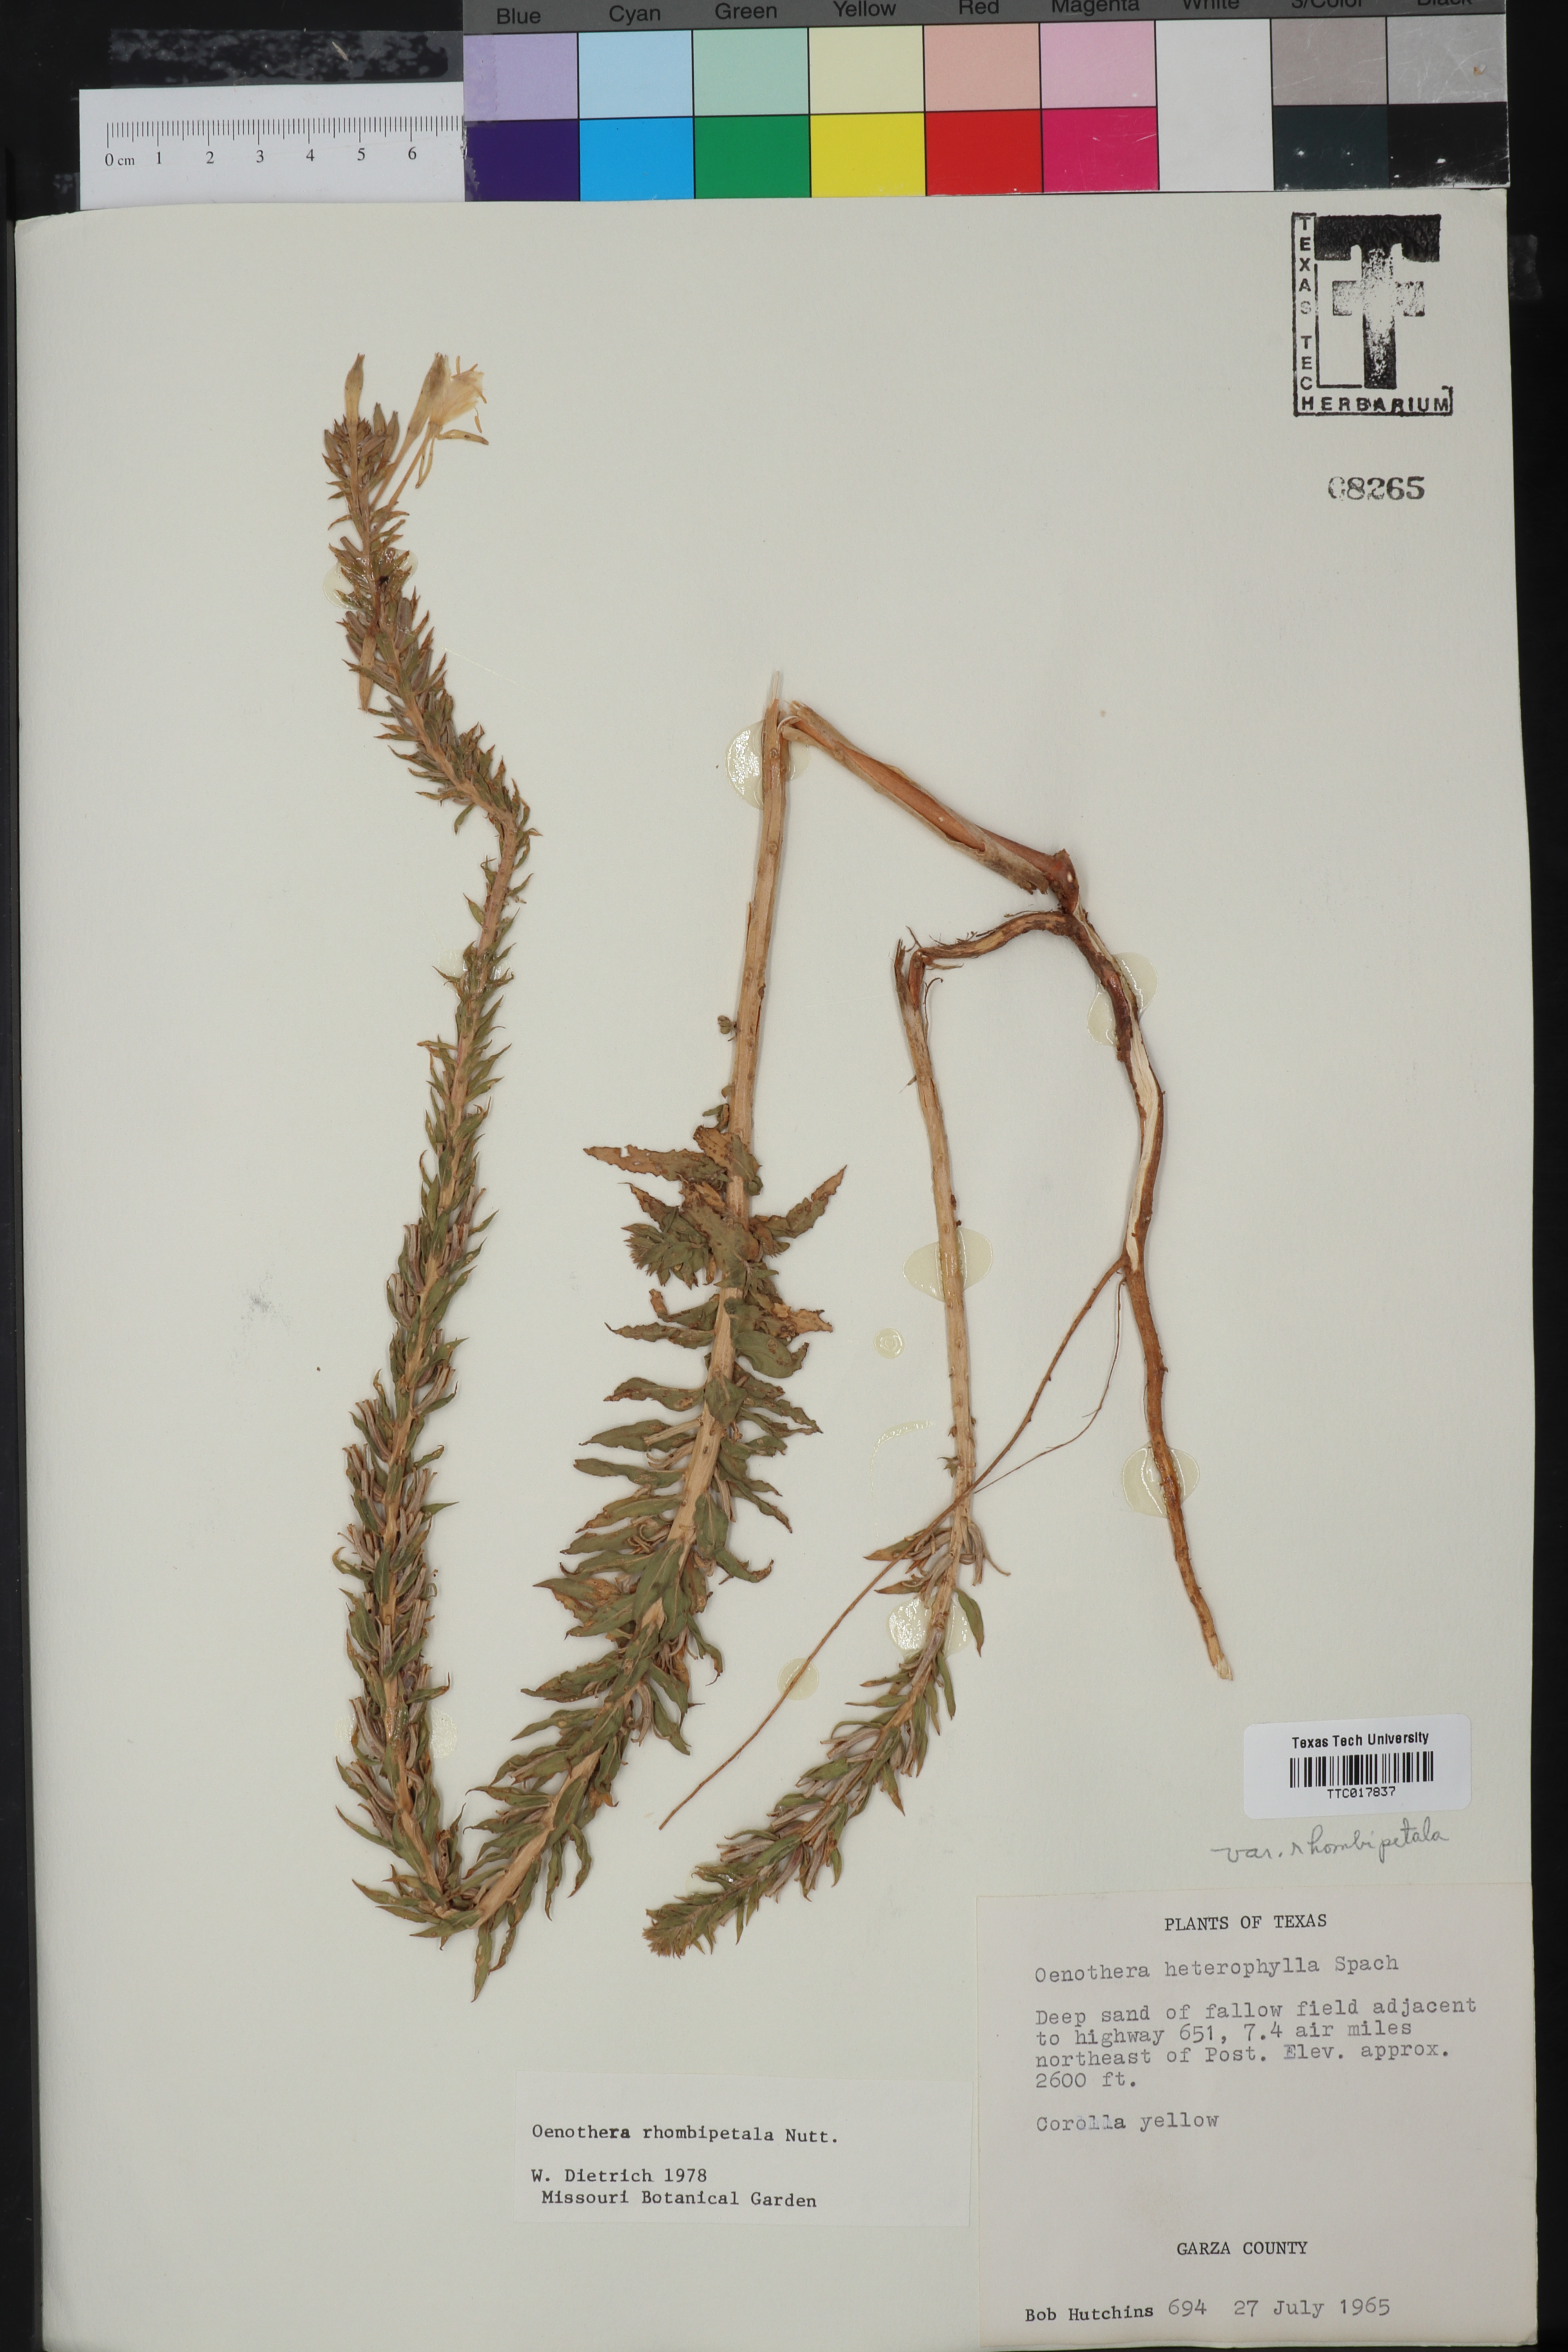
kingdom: Plantae
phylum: Tracheophyta
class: Magnoliopsida
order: Myrtales
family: Onagraceae
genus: Oenothera
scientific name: Oenothera rhombipetala
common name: Four-points evening-primrose
